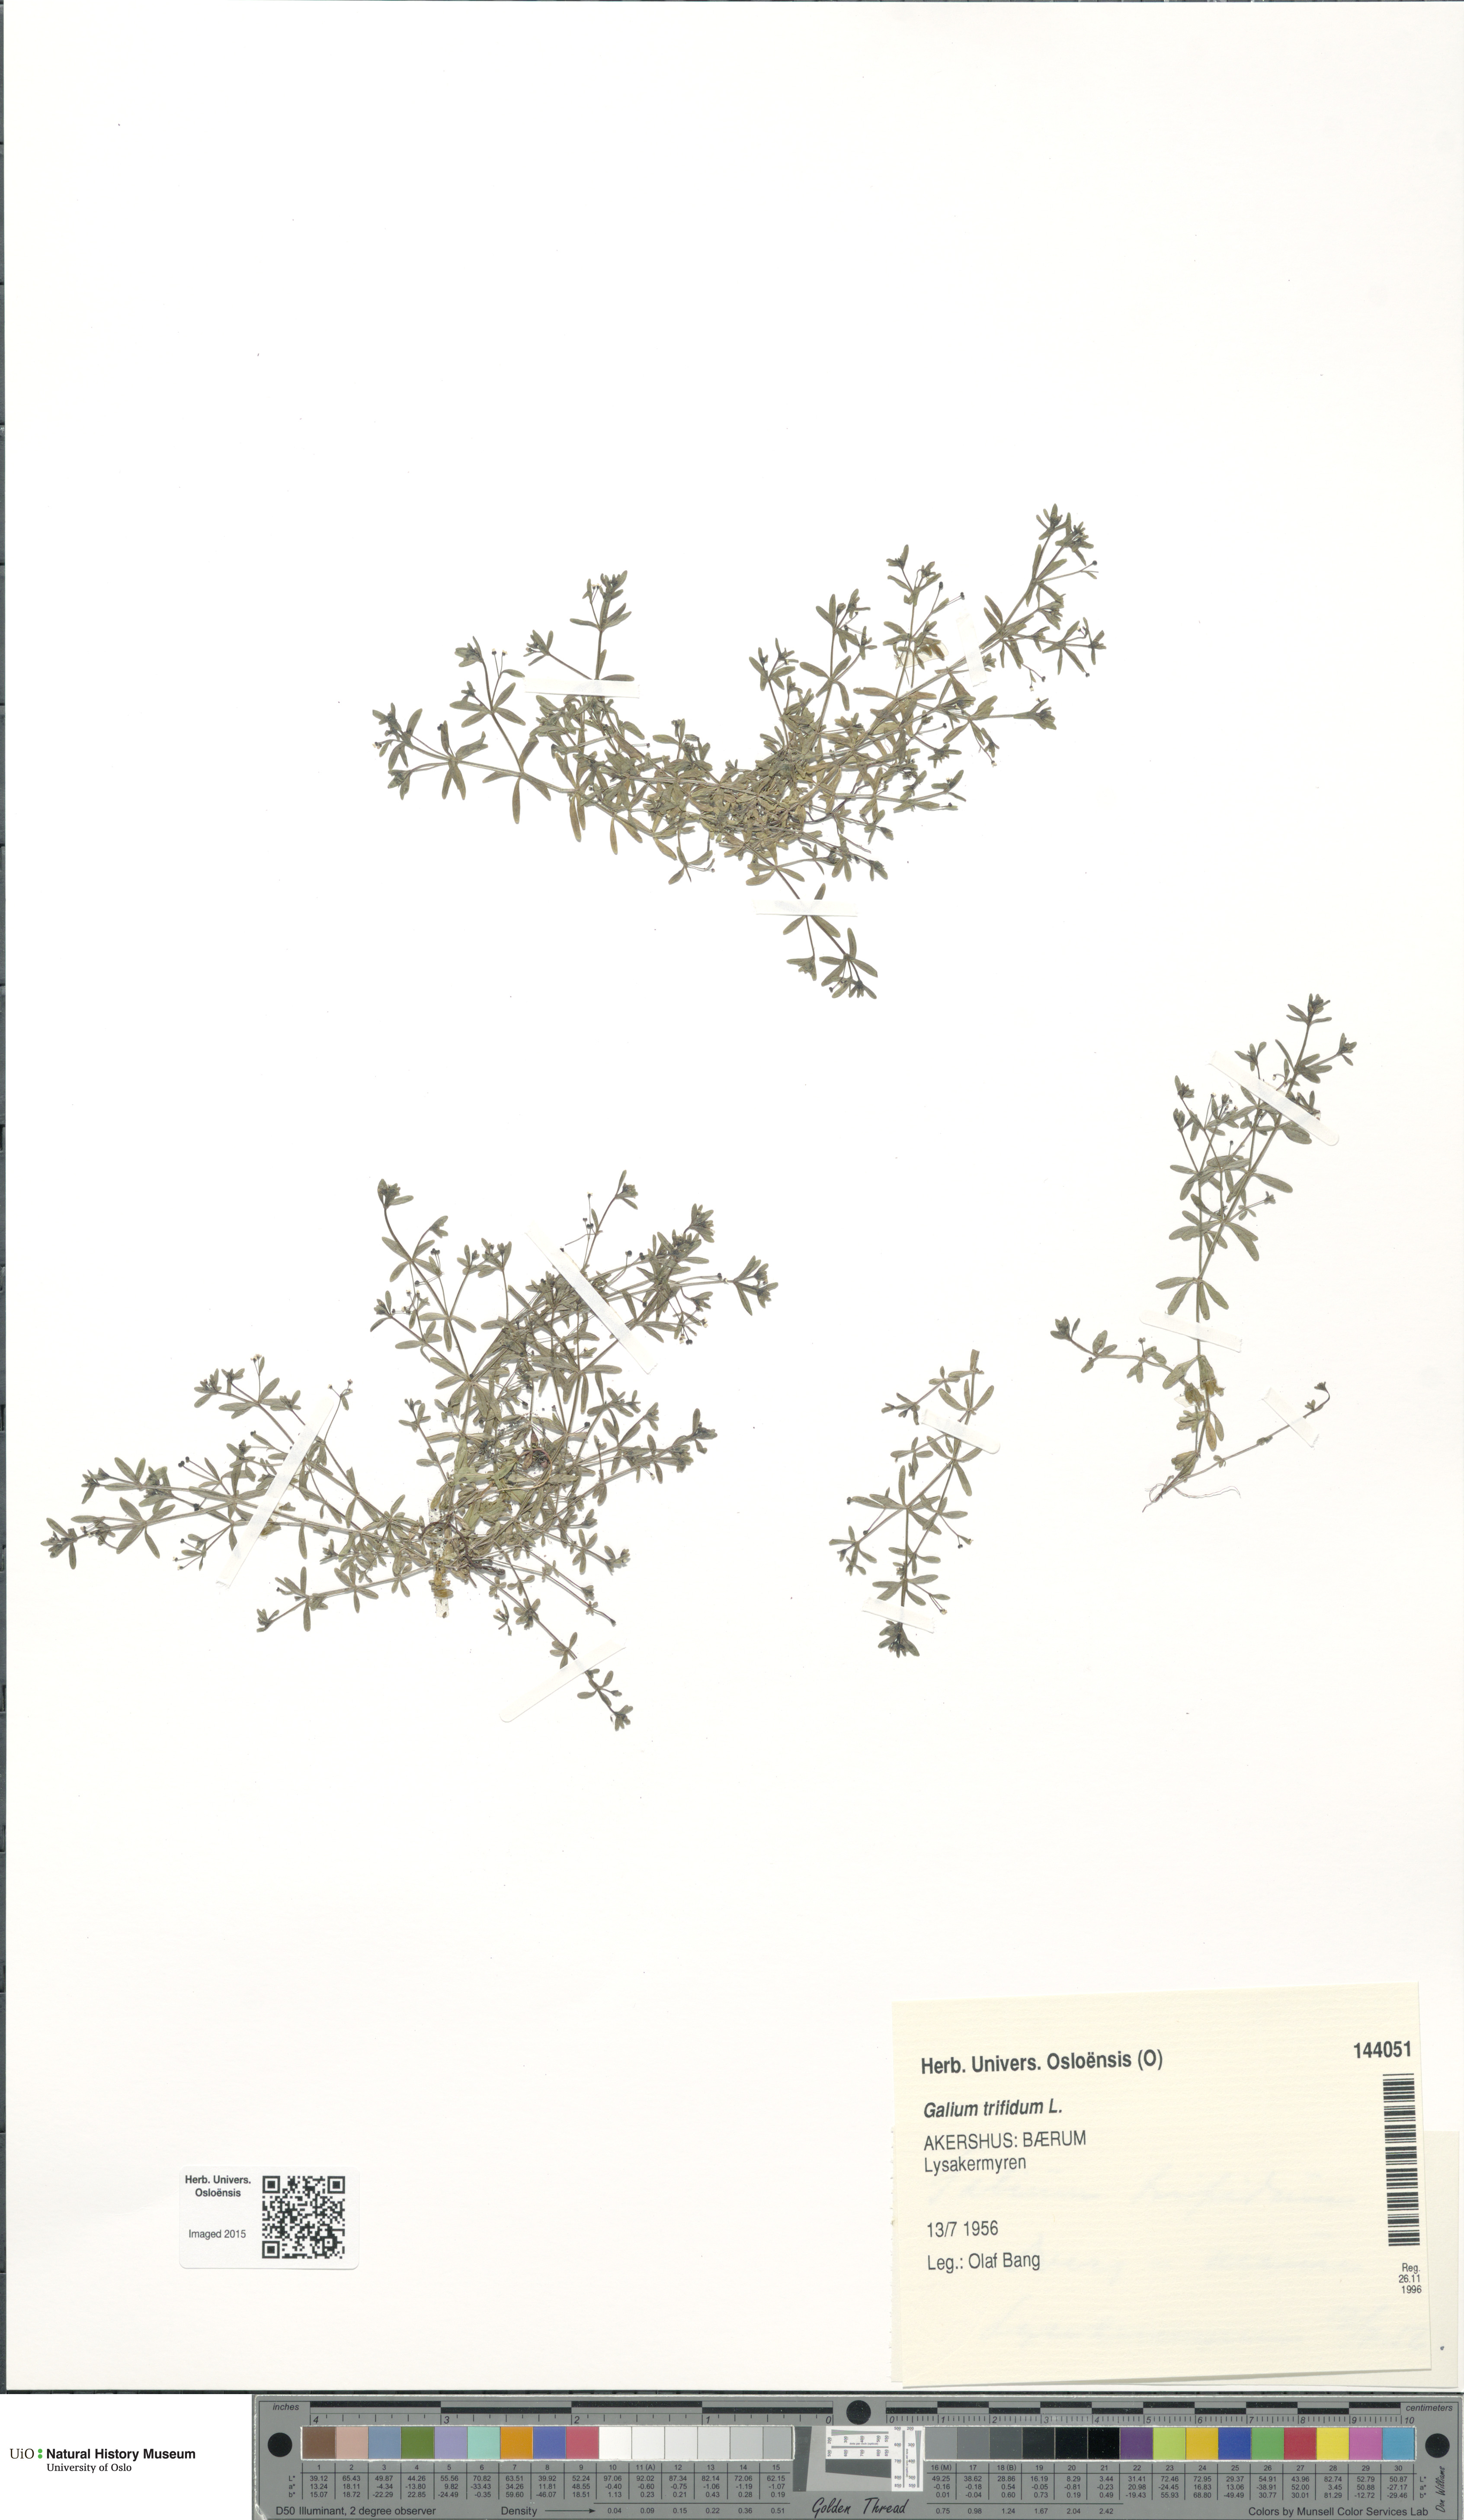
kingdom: Plantae
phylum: Tracheophyta
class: Magnoliopsida
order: Gentianales
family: Rubiaceae
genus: Galium
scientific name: Galium trifidum
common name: Small bedstraw
